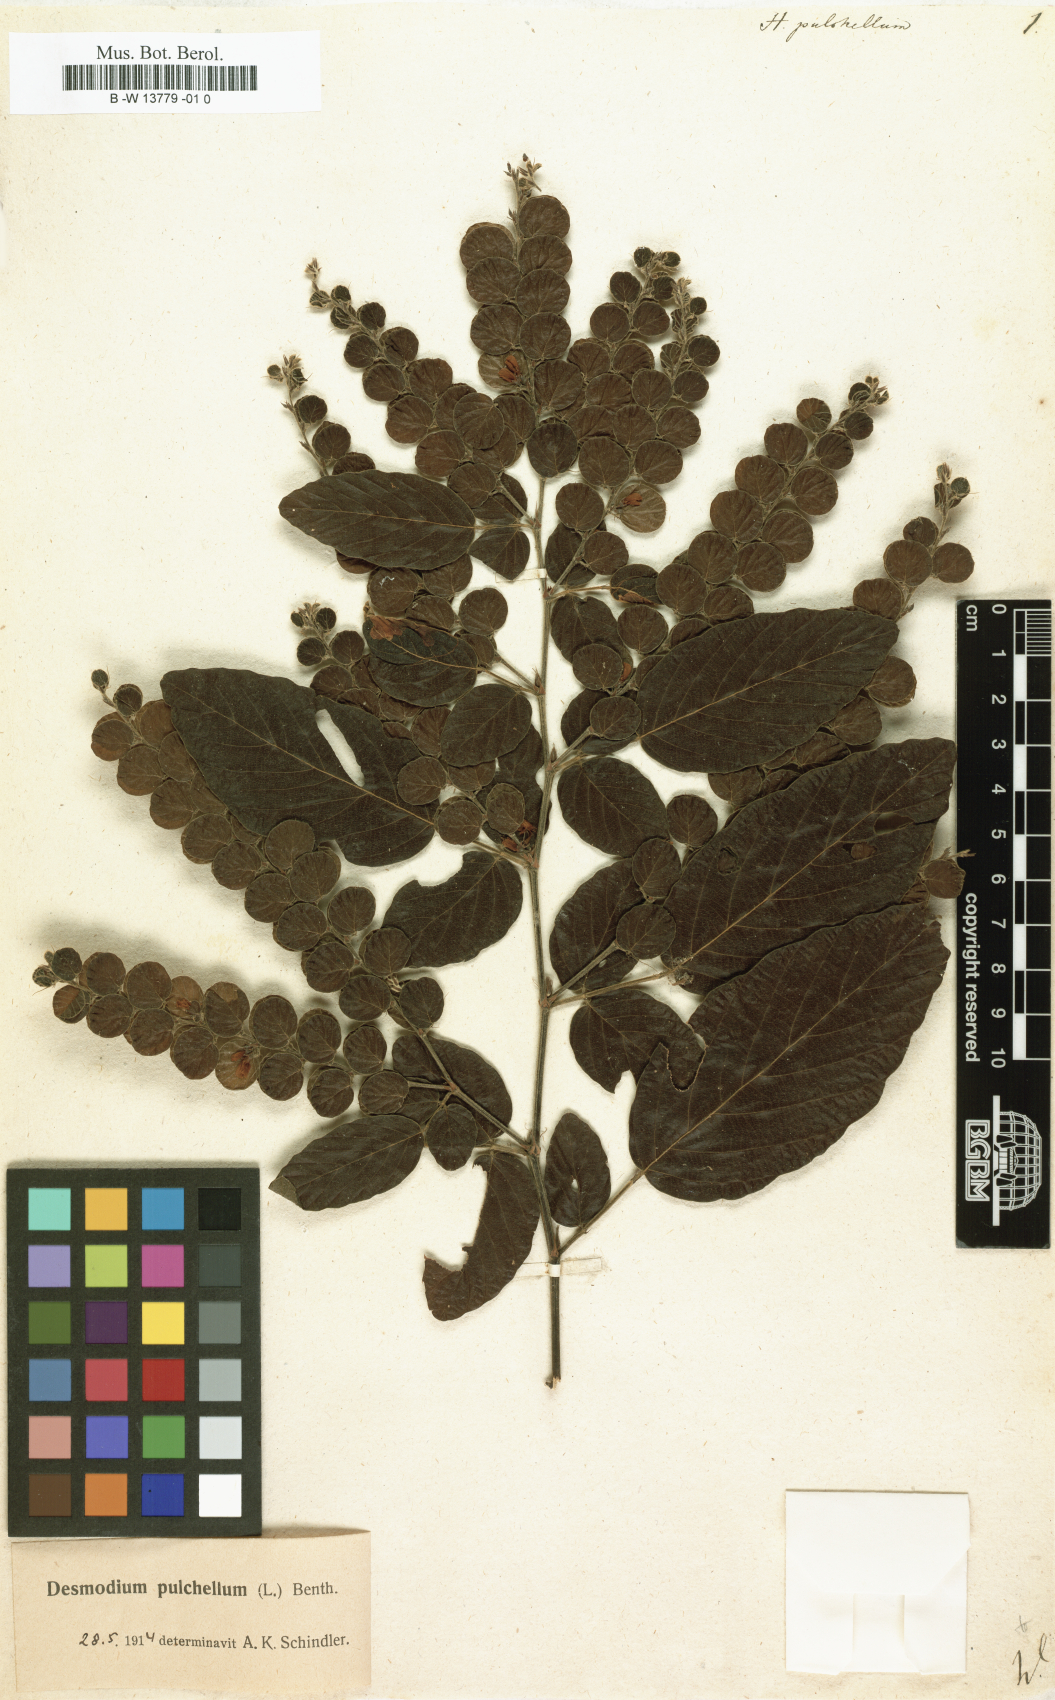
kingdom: Plantae
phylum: Tracheophyta
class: Magnoliopsida
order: Fabales
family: Fabaceae
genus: Phyllodium
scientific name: Phyllodium pulchellum
